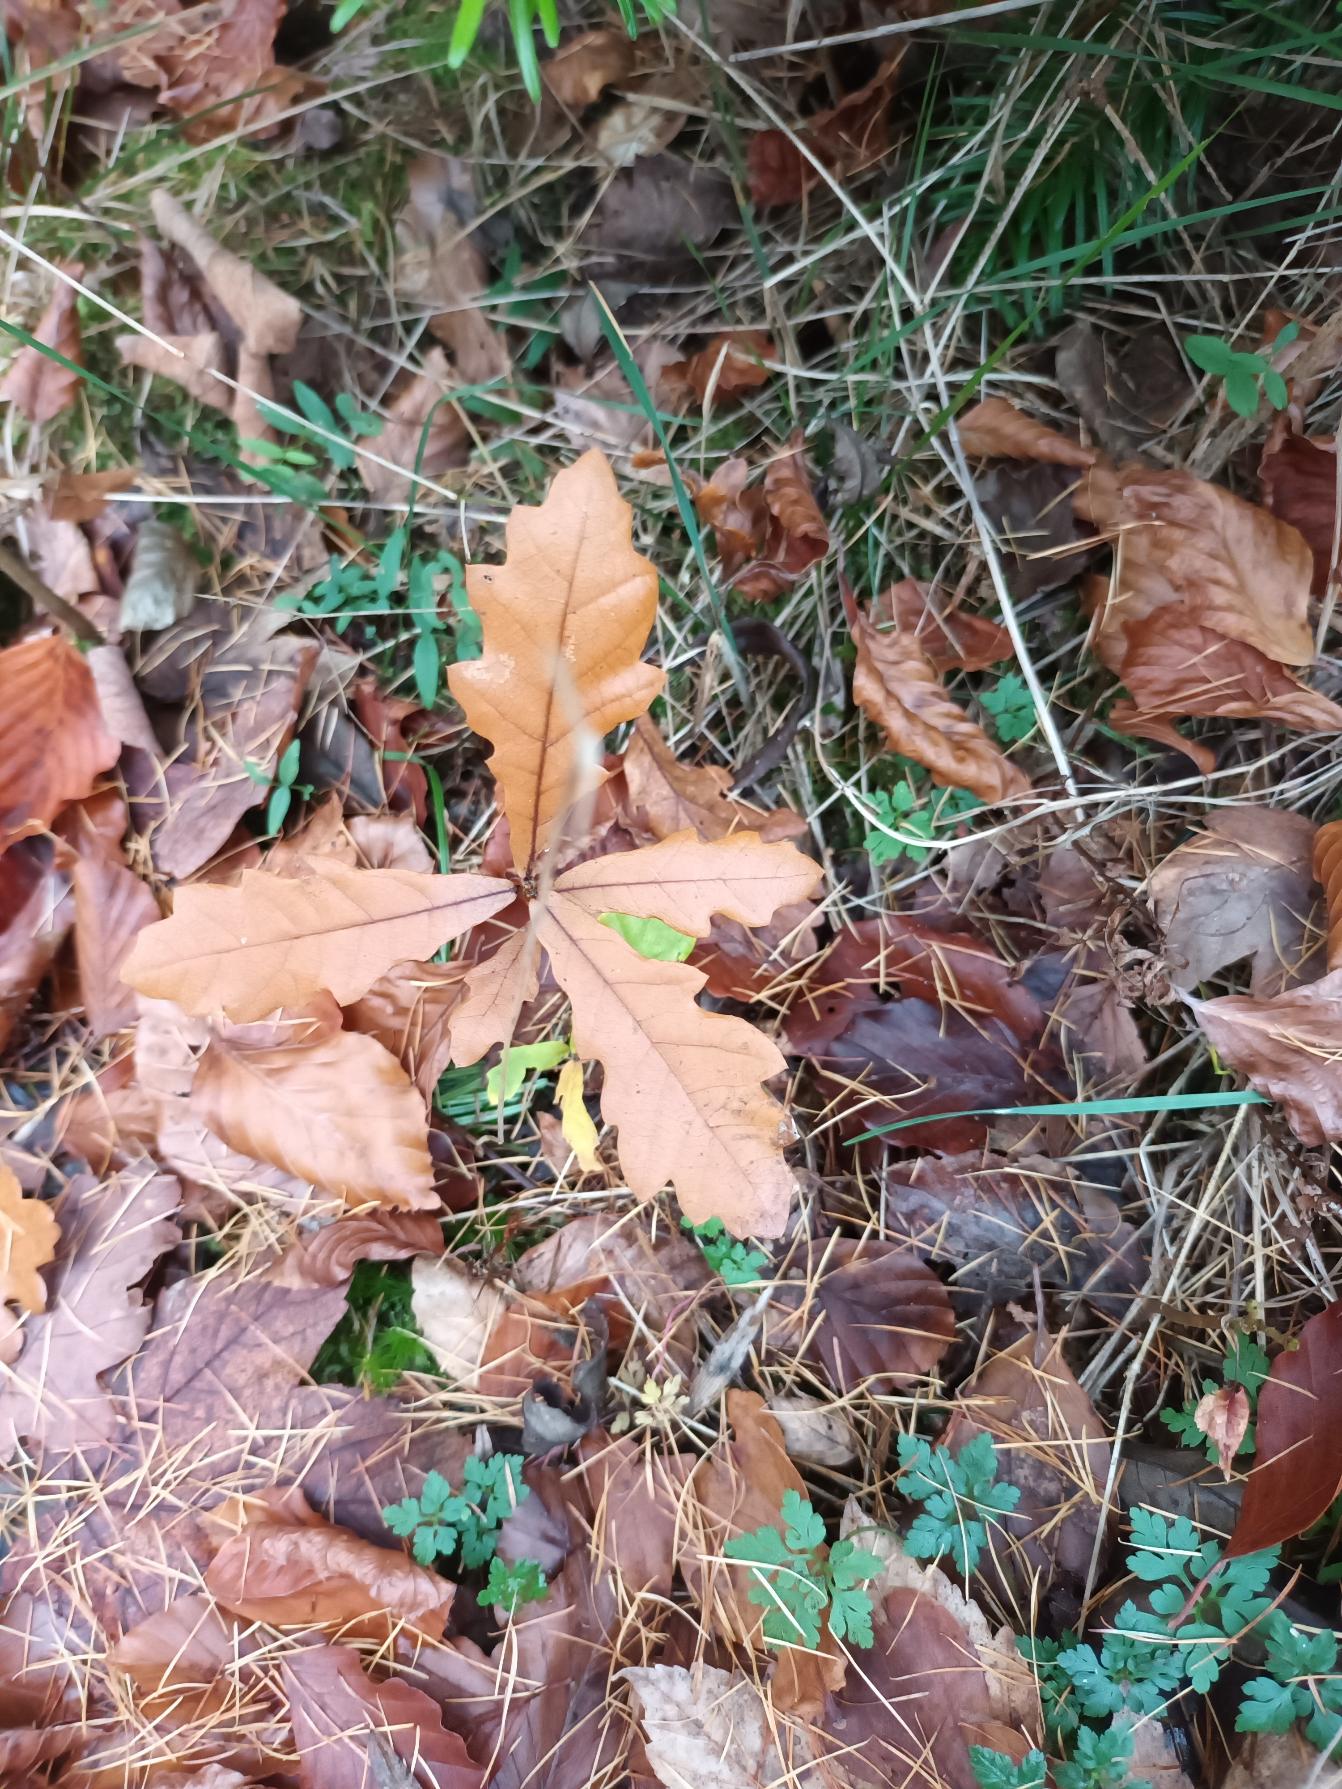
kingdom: Plantae
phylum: Tracheophyta
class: Magnoliopsida
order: Fagales
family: Fagaceae
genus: Quercus
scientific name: Quercus robur
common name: Stilk-eg/almindelig eg
